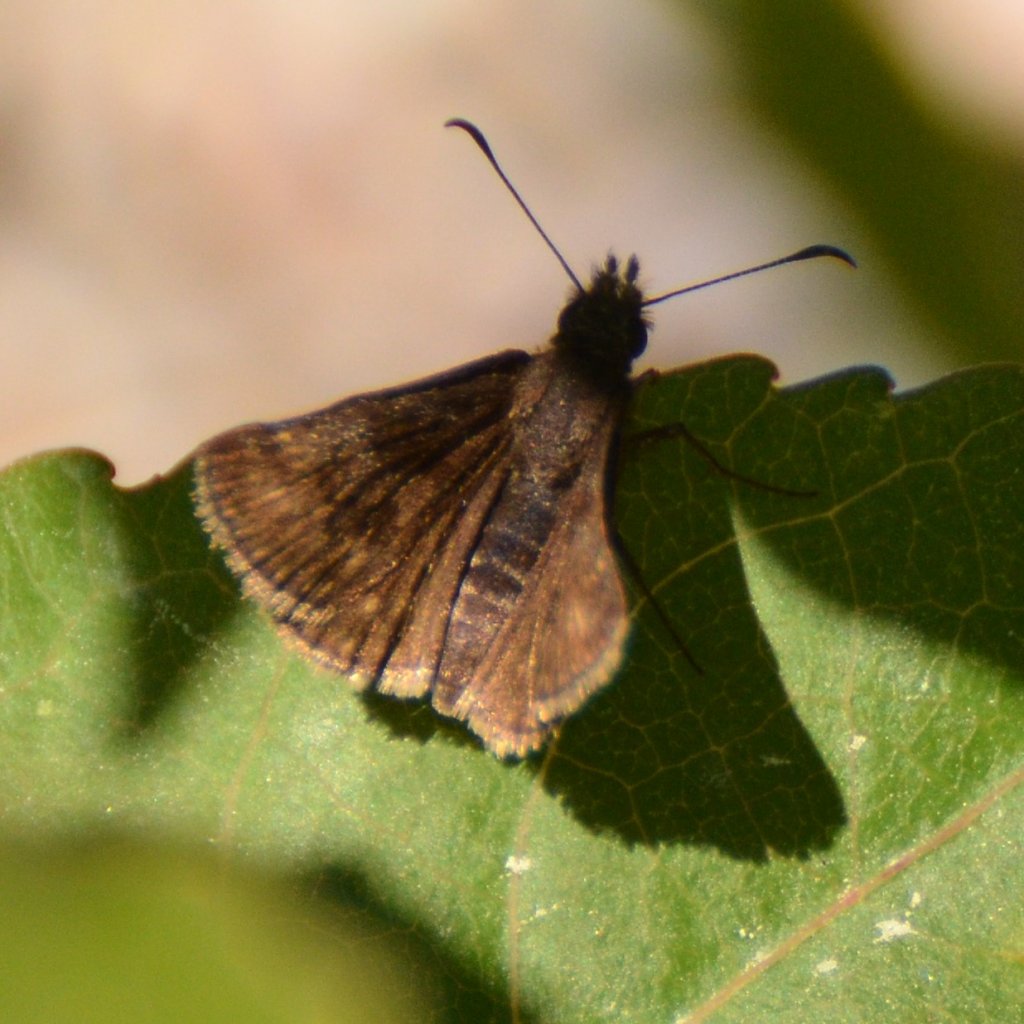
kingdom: Animalia
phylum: Arthropoda
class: Insecta
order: Lepidoptera
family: Hesperiidae
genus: Erynnis
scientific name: Erynnis icelus
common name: Dreamy Duskywing
